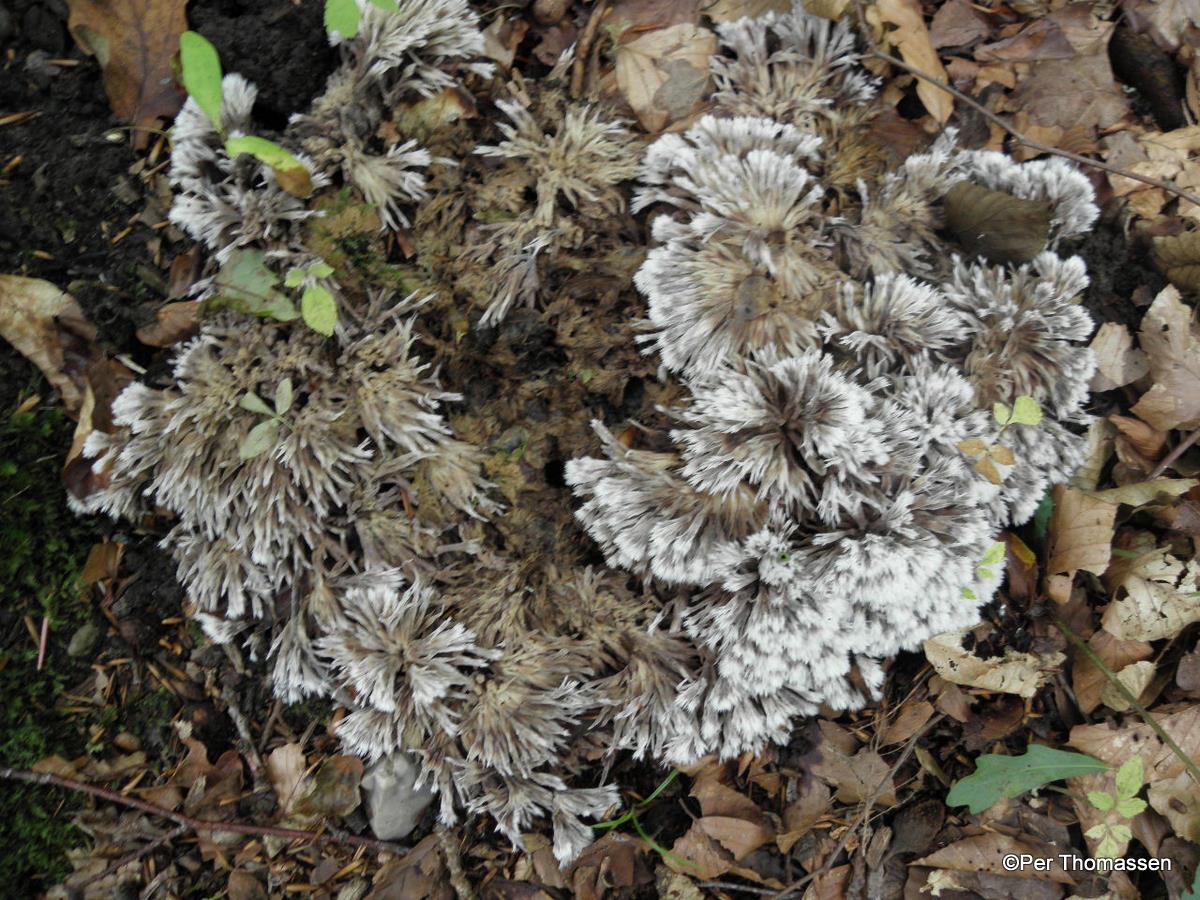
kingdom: Fungi
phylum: Basidiomycota
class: Agaricomycetes
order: Thelephorales
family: Thelephoraceae
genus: Thelephora
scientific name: Thelephora penicillata
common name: fladtrådt frynsesvamp
